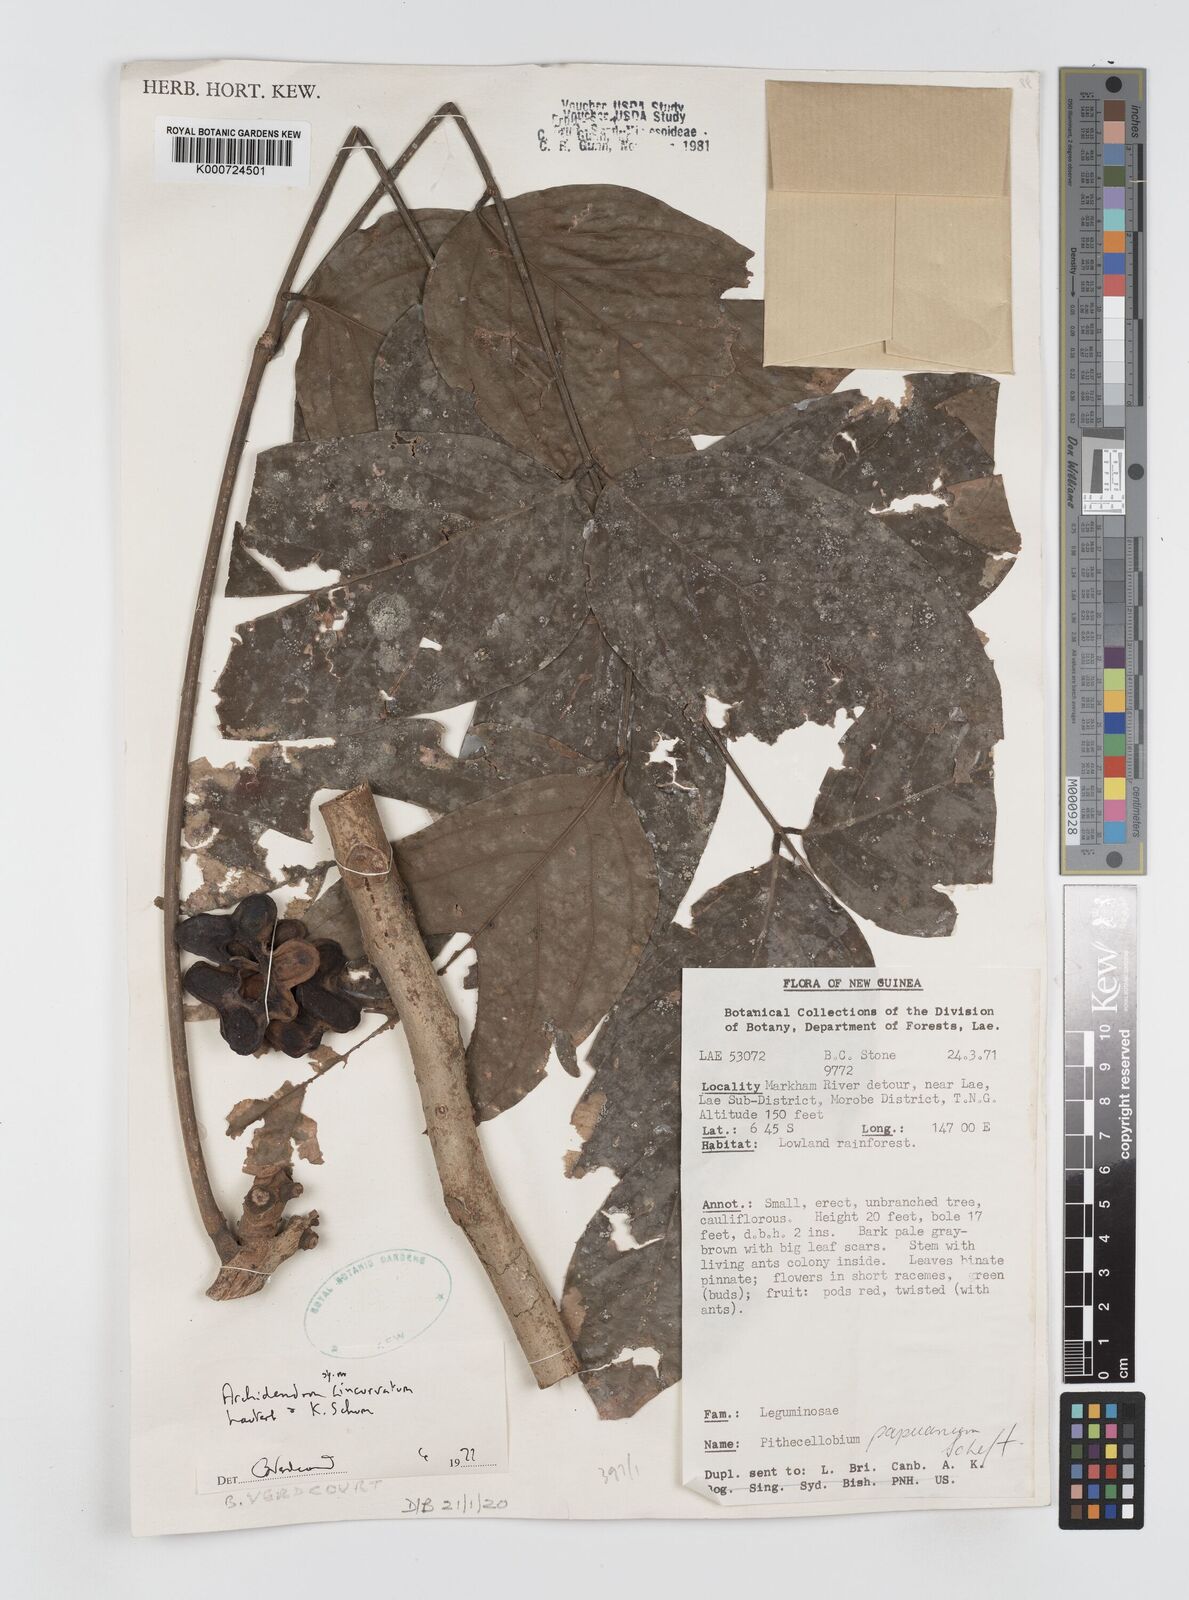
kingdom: Plantae
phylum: Tracheophyta
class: Magnoliopsida
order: Fabales
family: Fabaceae
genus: Archidendron
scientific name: Archidendron aruense
